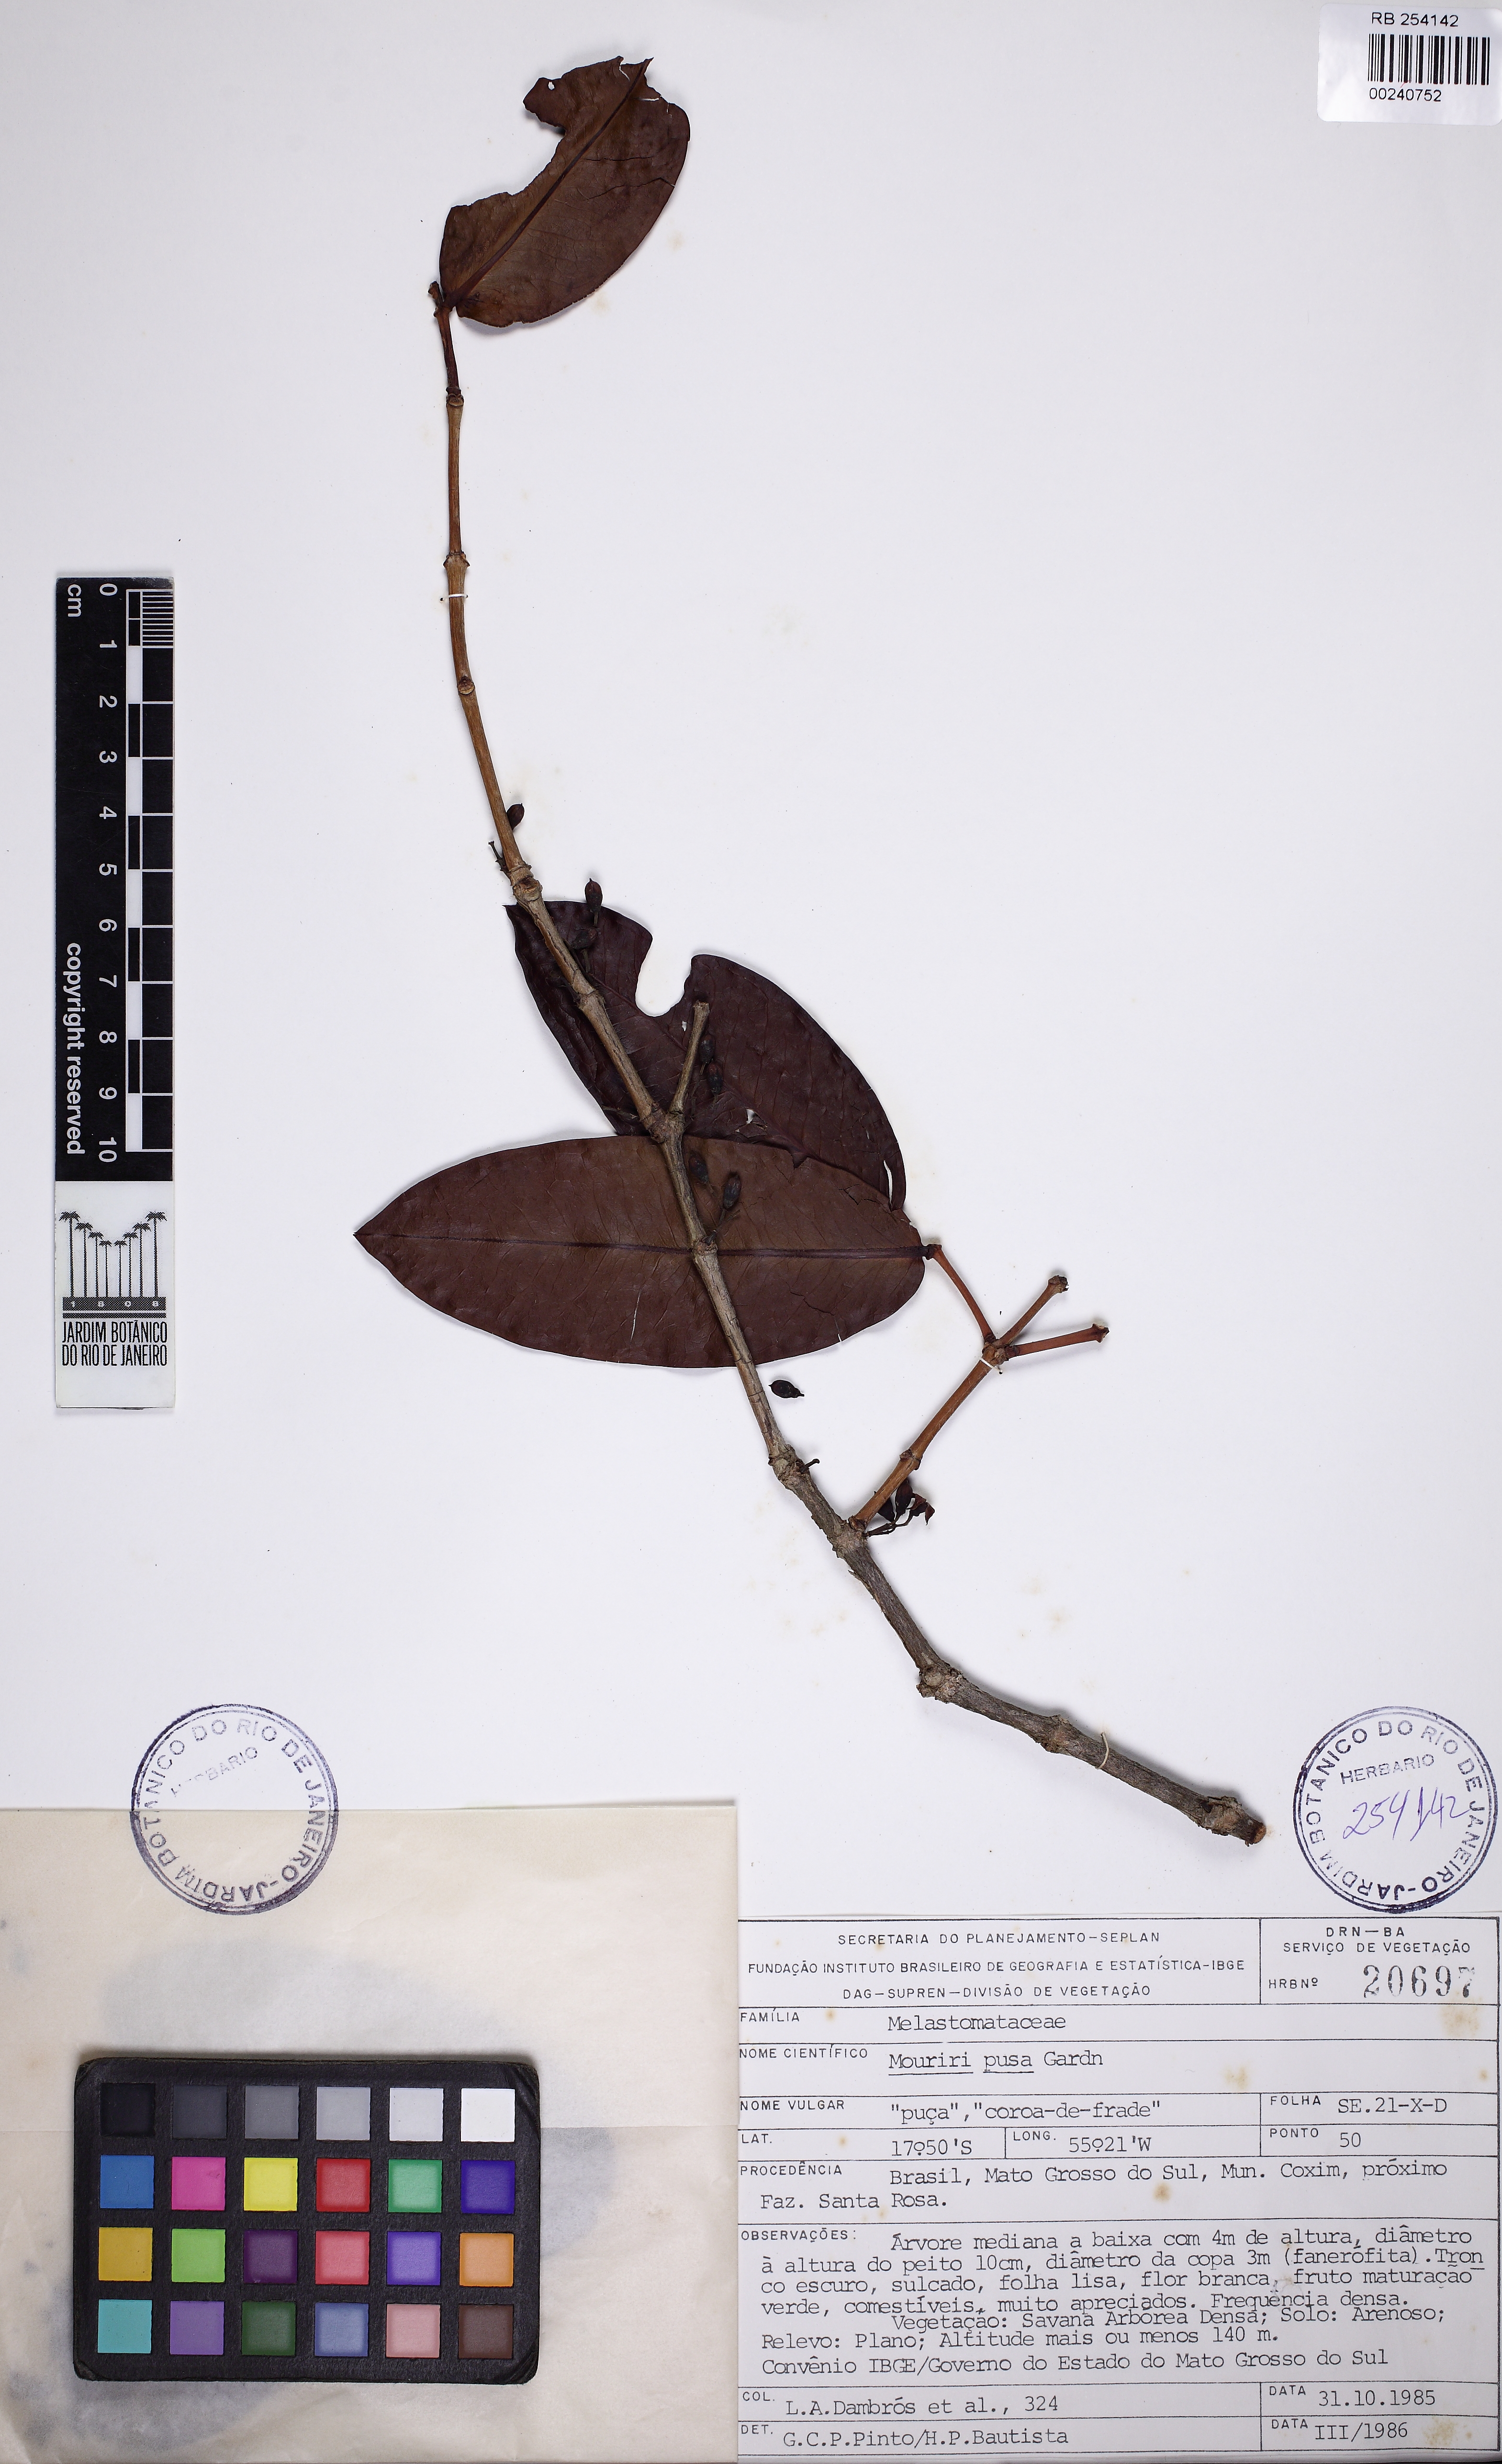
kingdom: Plantae
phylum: Tracheophyta
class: Magnoliopsida
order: Myrtales
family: Melastomataceae
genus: Mouriri
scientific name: Mouriri elliptica
